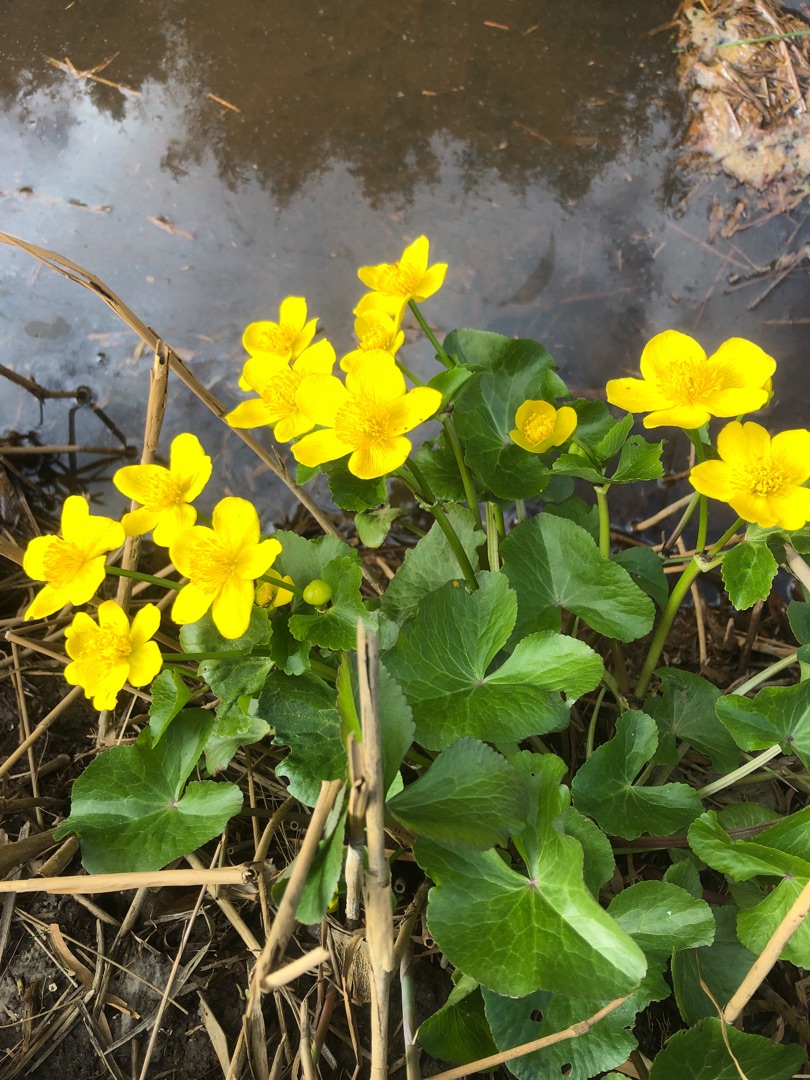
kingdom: Plantae
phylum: Tracheophyta
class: Magnoliopsida
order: Ranunculales
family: Ranunculaceae
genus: Caltha
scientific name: Caltha palustris
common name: Eng-kabbeleje
